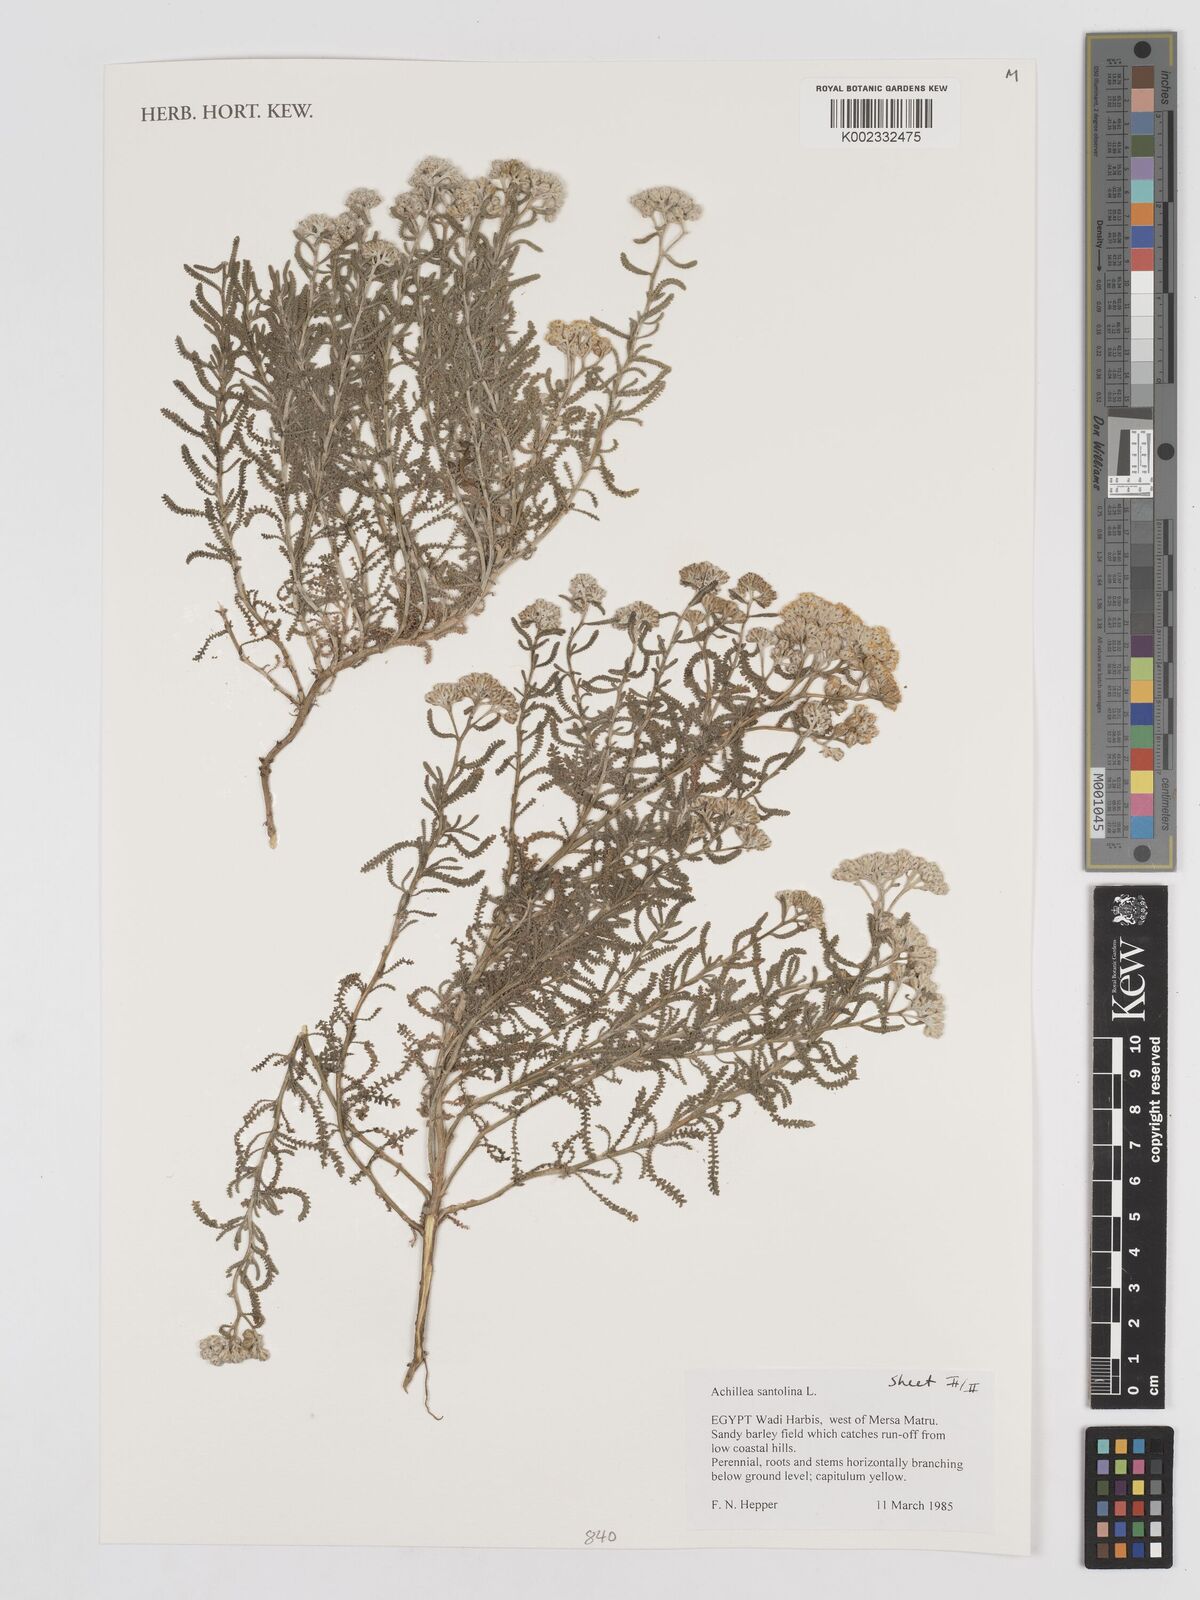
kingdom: Plantae
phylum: Tracheophyta
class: Magnoliopsida
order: Asterales
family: Asteraceae
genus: Achillea
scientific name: Achillea tenuifolia
